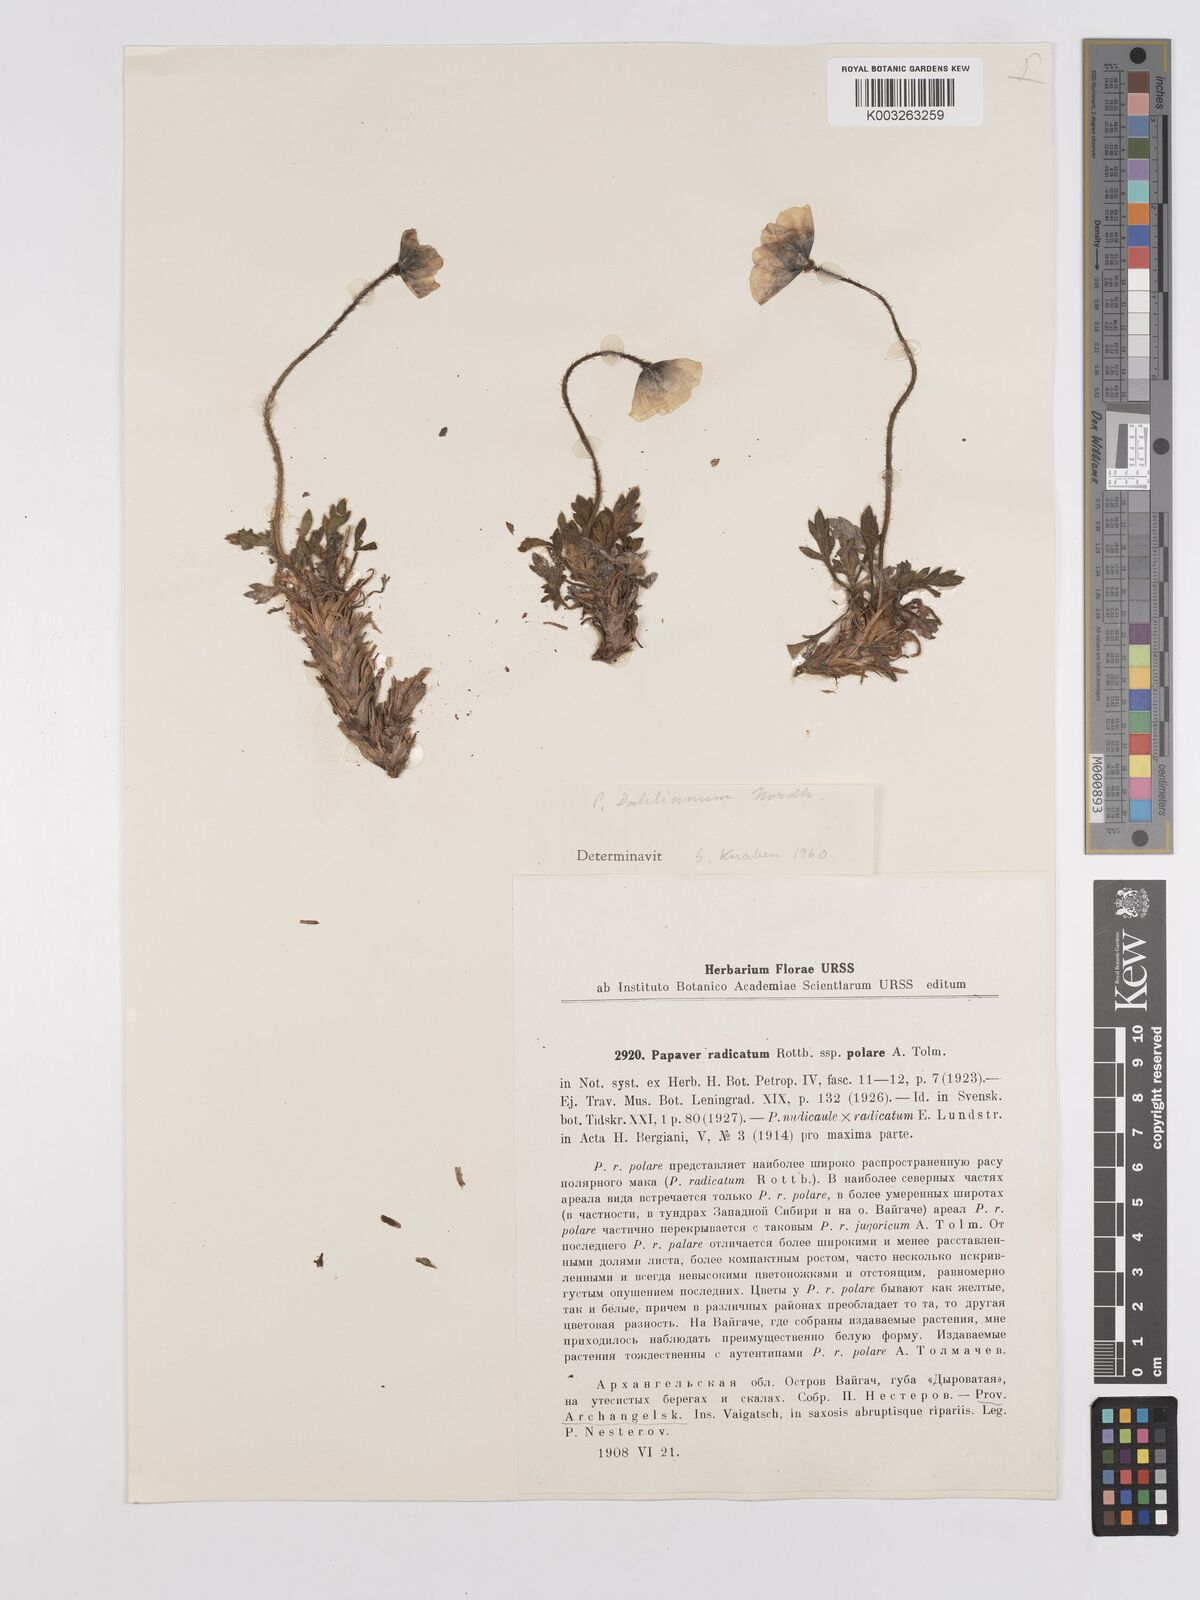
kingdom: Plantae
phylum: Tracheophyta
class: Magnoliopsida
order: Ranunculales
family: Papaveraceae
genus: Papaver
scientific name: Papaver radicatum
